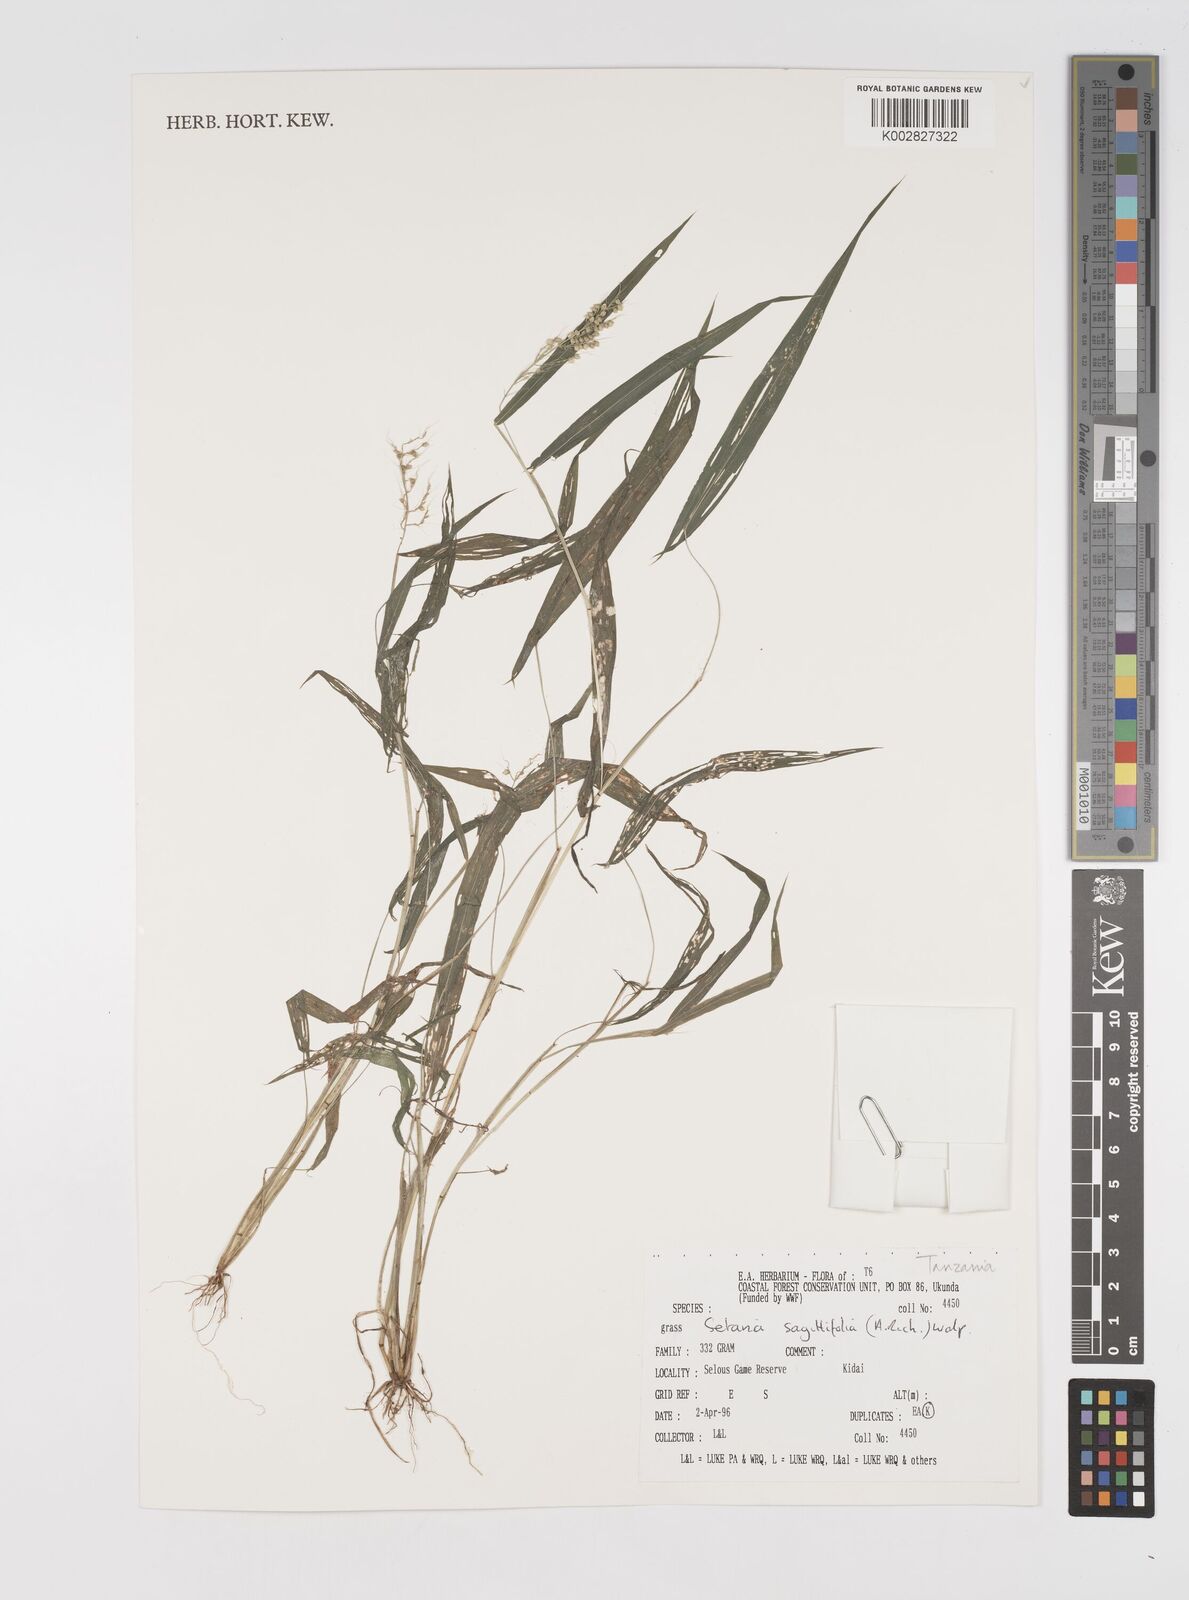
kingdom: Plantae
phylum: Tracheophyta
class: Liliopsida
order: Poales
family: Poaceae
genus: Setaria
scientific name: Setaria sagittifolia
